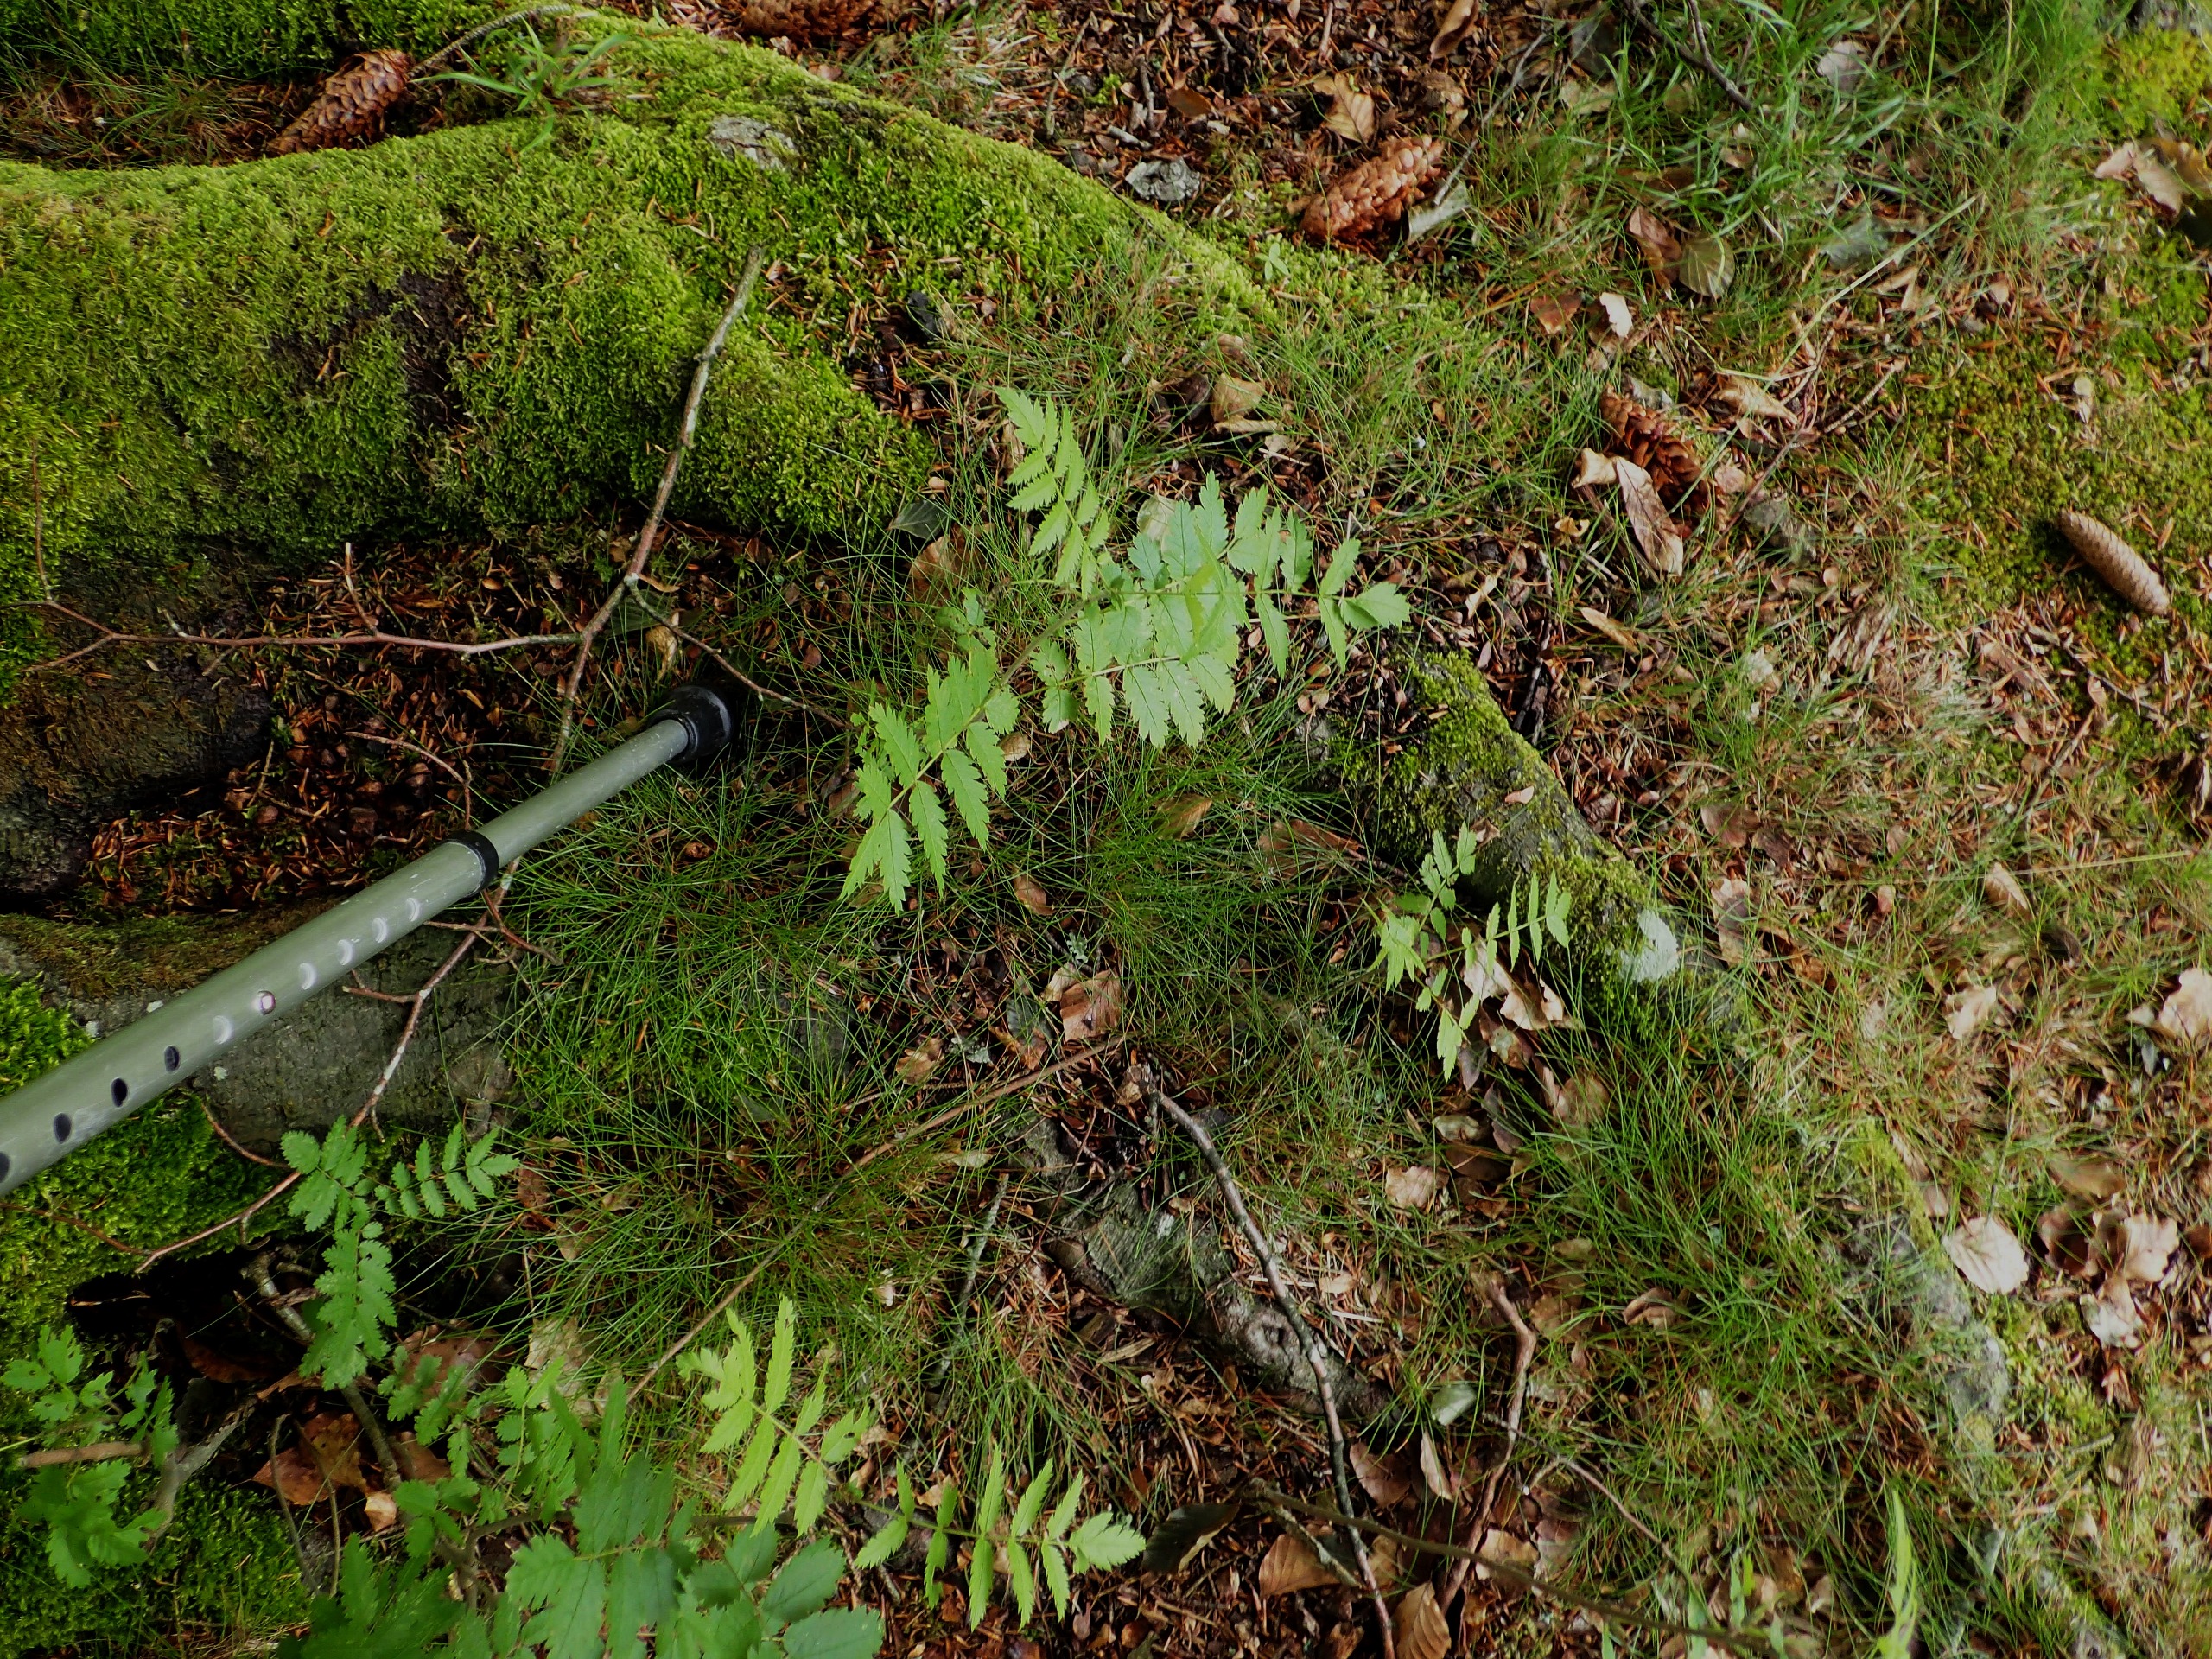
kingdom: Plantae
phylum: Tracheophyta
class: Magnoliopsida
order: Rosales
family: Rosaceae
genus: Sorbus
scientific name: Sorbus aucuparia
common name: Almindelig røn
